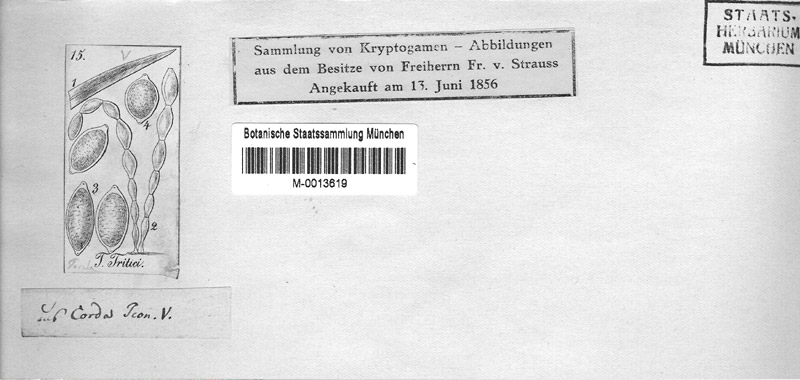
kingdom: Fungi
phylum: Ascomycota
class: Leotiomycetes
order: Helotiales
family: Erysiphaceae
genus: Blumeria
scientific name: Blumeria graminis
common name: Grass and cereal powdery mildew
